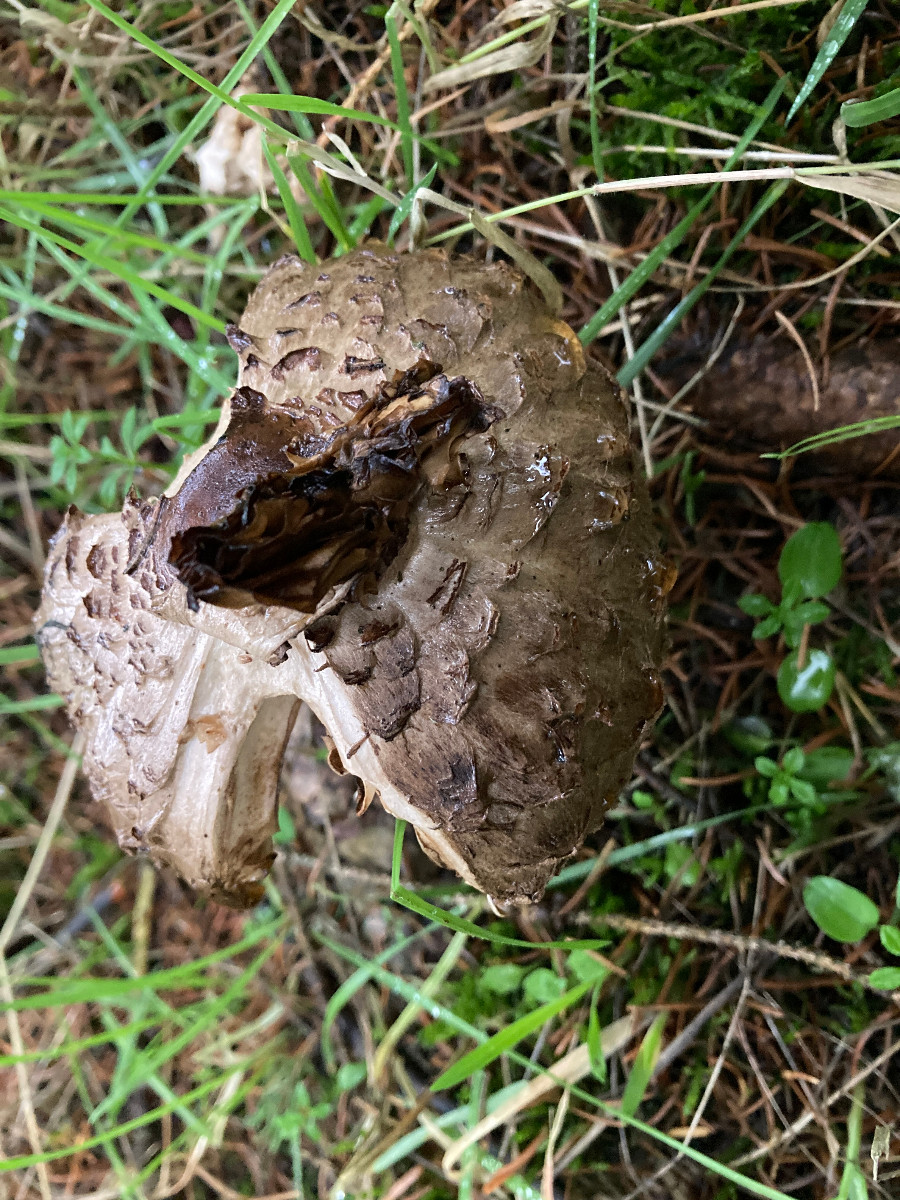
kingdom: Fungi
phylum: Basidiomycota
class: Agaricomycetes
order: Agaricales
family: Agaricaceae
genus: Chlorophyllum
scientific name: Chlorophyllum olivieri
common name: almindelig rabarberhat
